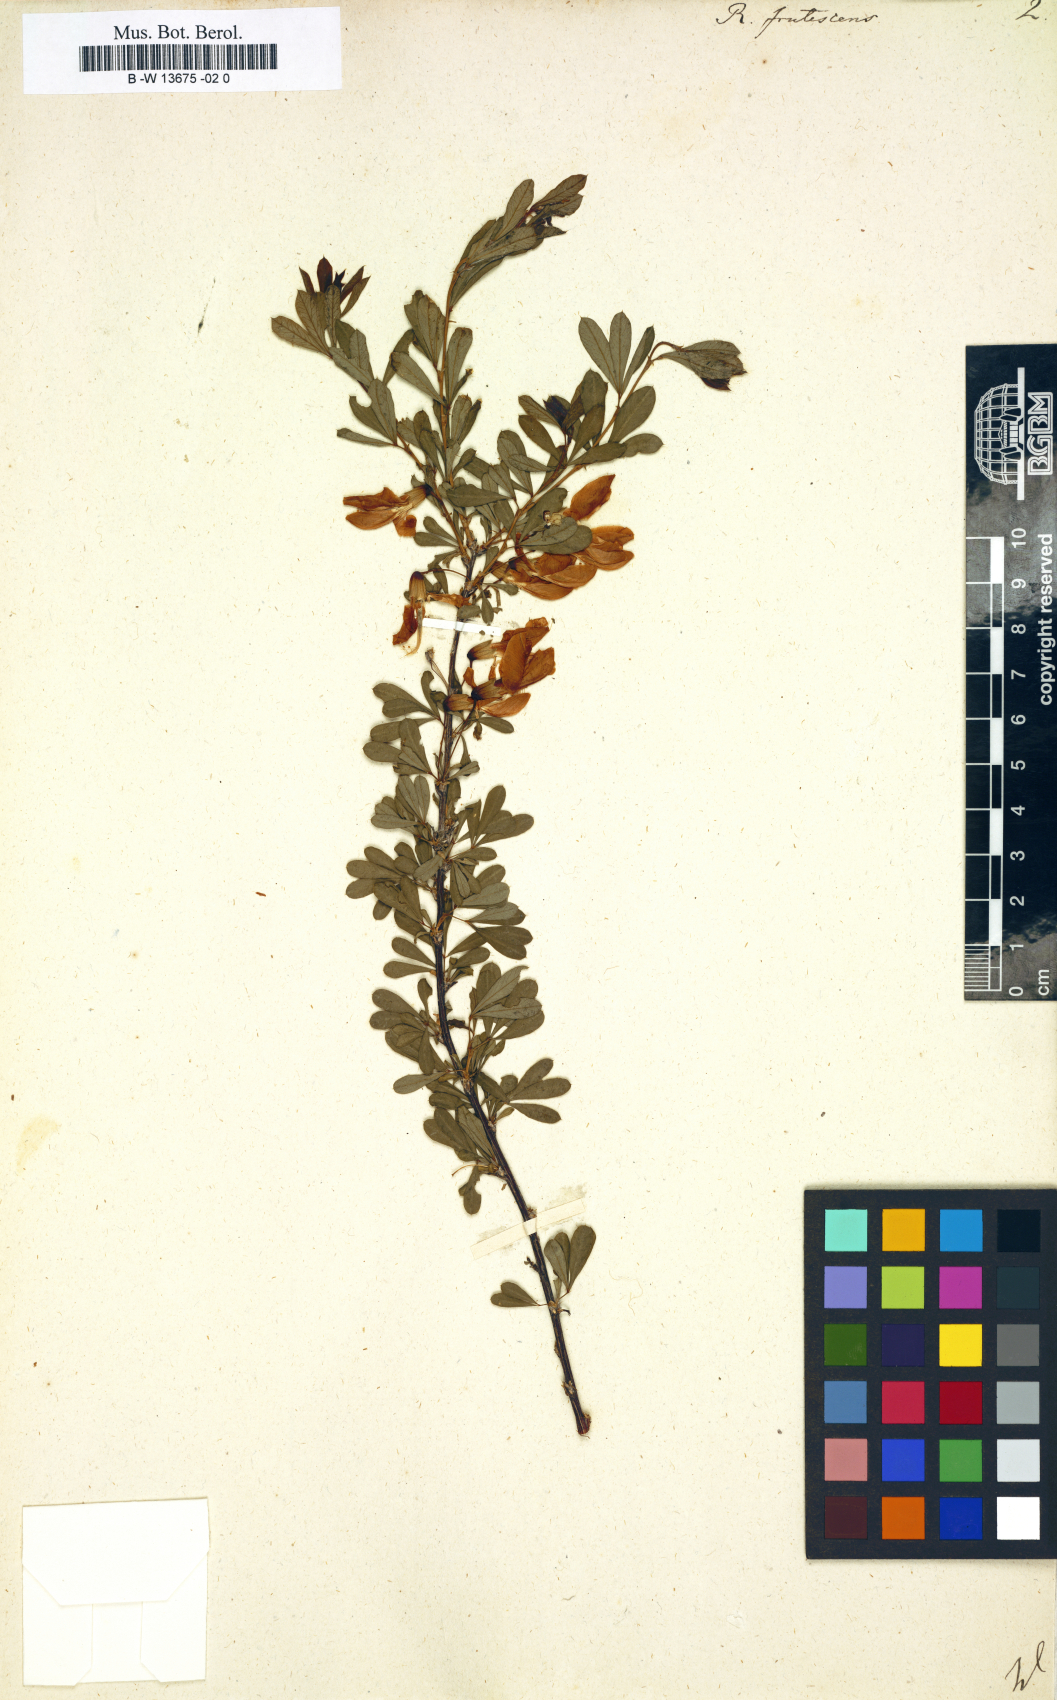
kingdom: Plantae
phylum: Tracheophyta
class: Magnoliopsida
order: Fabales
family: Fabaceae
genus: Caragana
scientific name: Caragana frutex
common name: Russian peashrub
